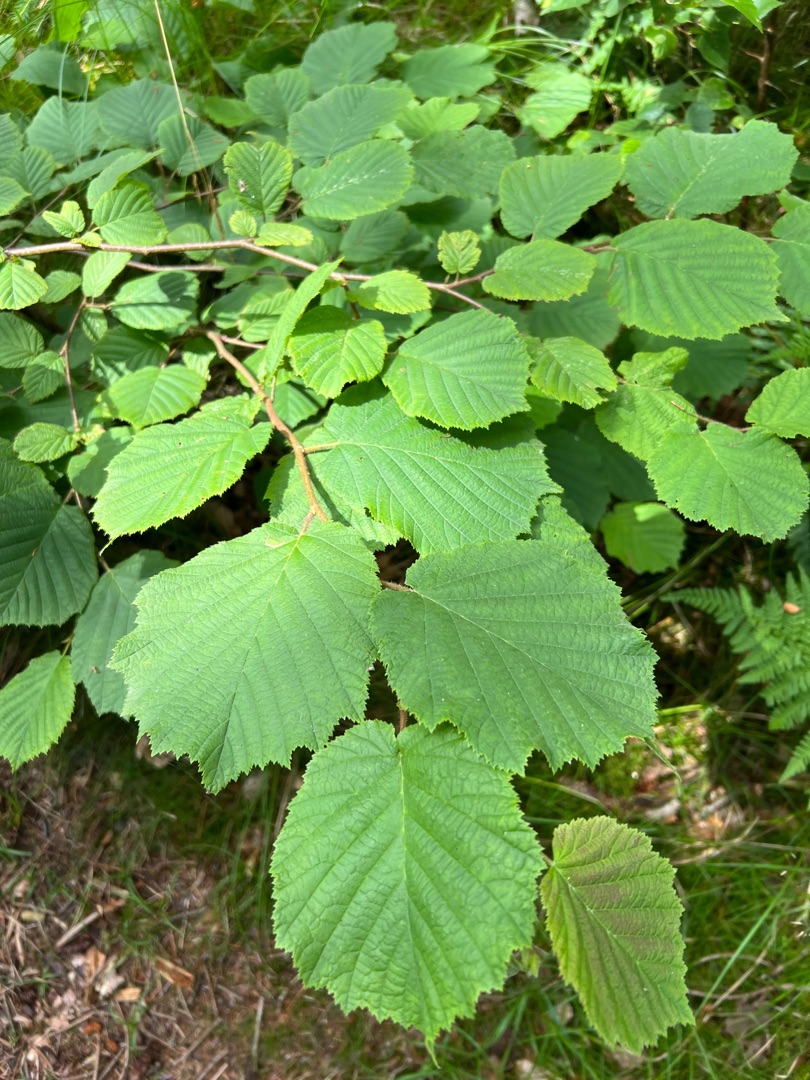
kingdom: Plantae
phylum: Tracheophyta
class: Magnoliopsida
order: Fagales
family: Betulaceae
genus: Corylus
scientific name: Corylus avellana
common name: Hassel
